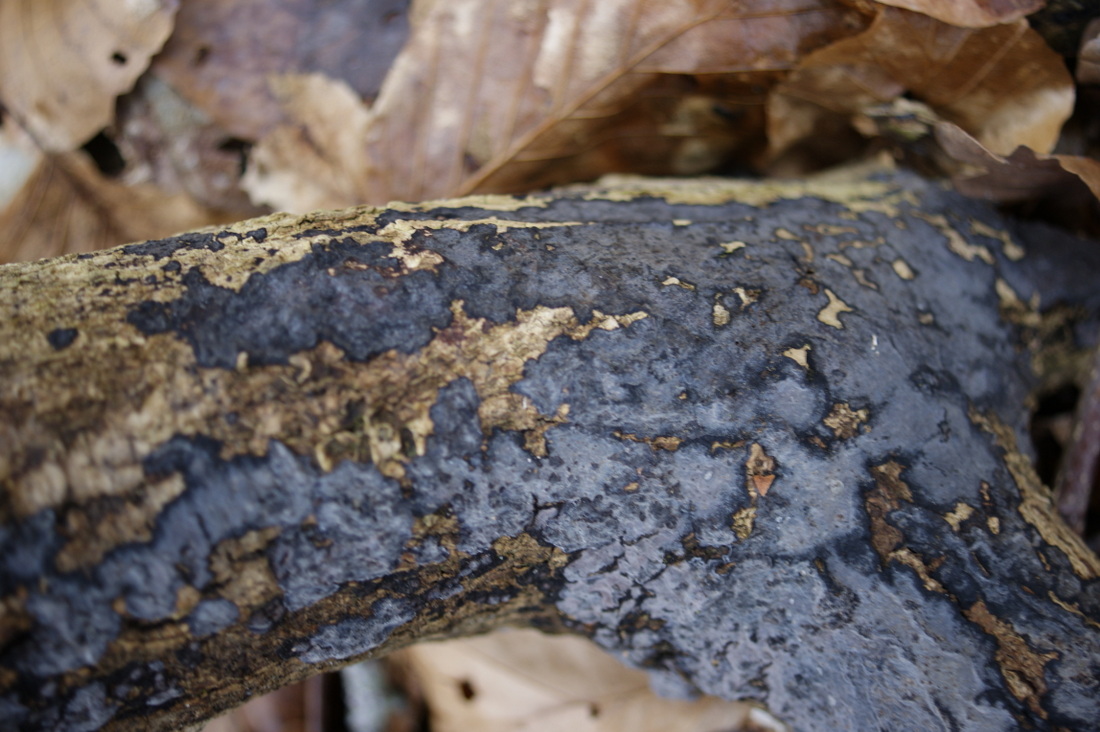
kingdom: Fungi
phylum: Basidiomycota
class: Agaricomycetes
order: Russulales
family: Peniophoraceae
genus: Peniophora
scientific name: Peniophora limitata
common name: mørkrandet voksskind
